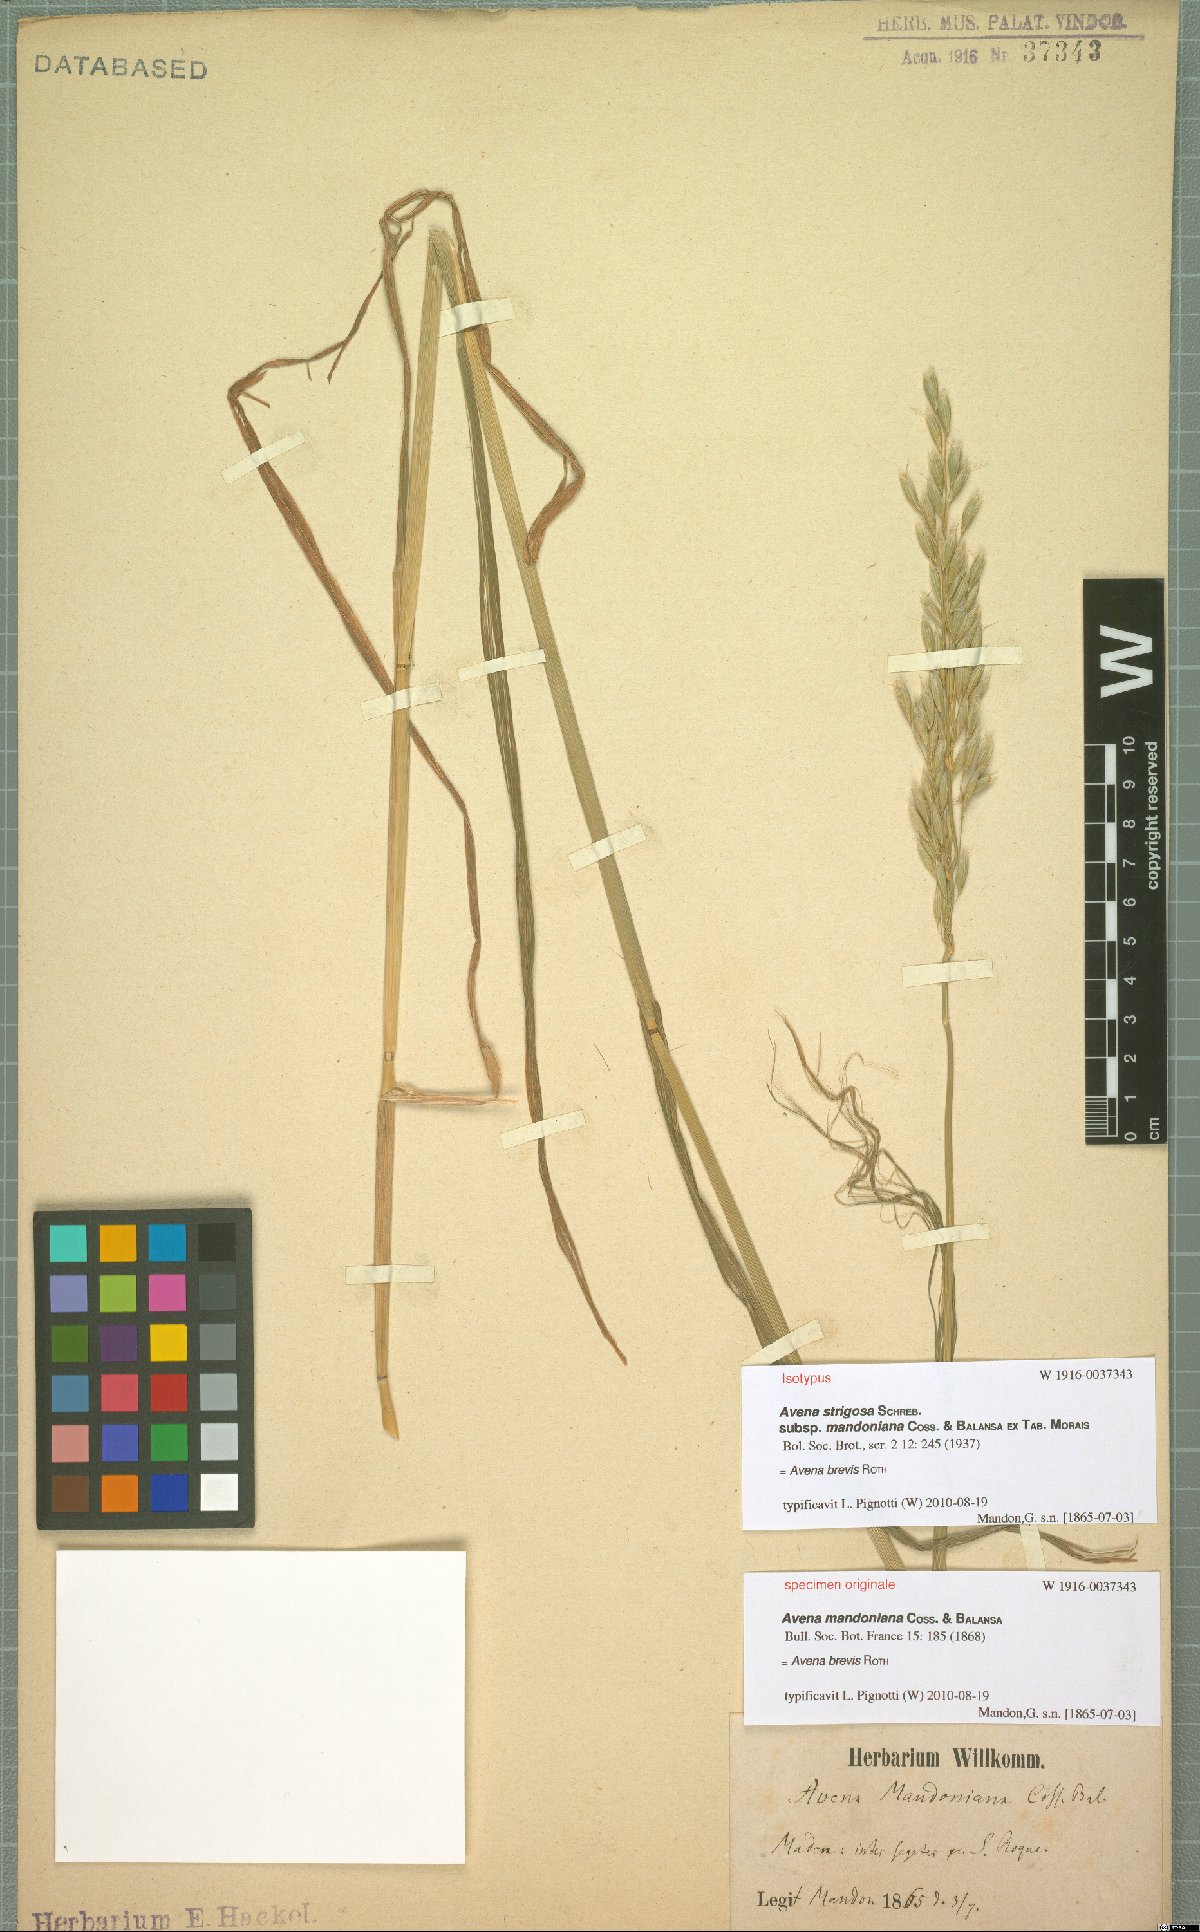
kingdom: Plantae
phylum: Tracheophyta
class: Liliopsida
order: Poales
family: Poaceae
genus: Avena
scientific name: Avena brevis
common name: Short oat
